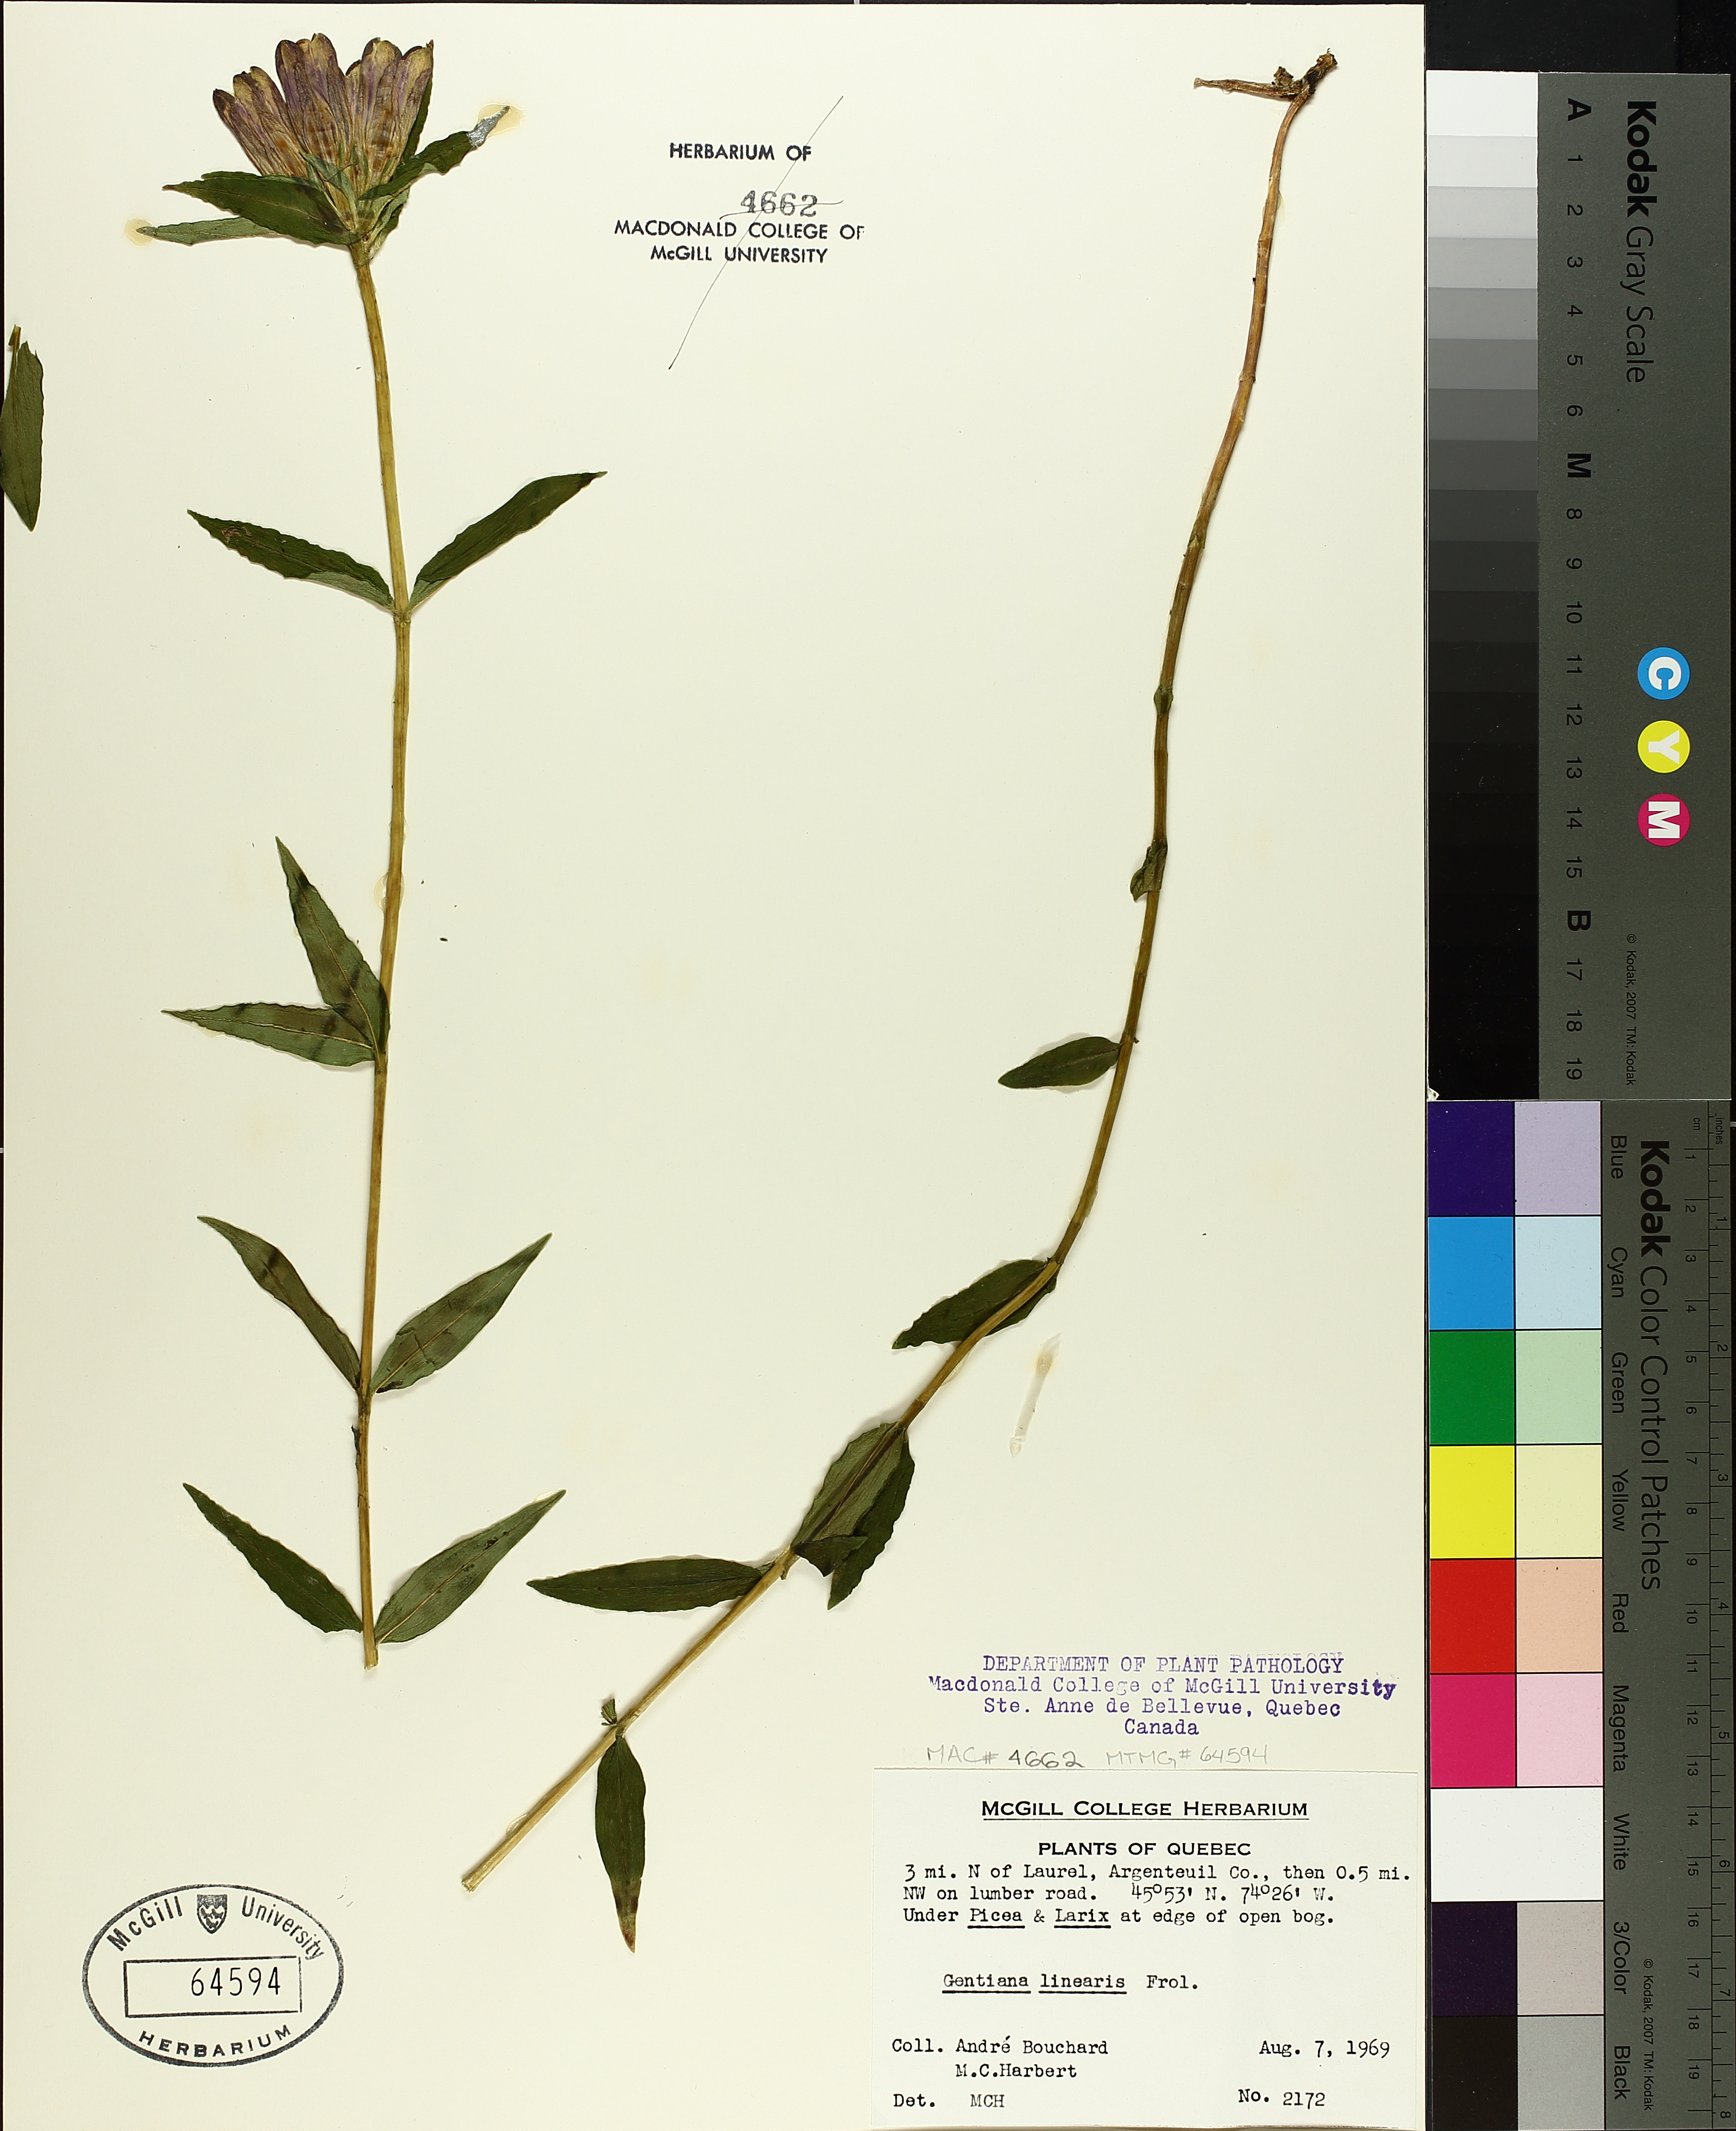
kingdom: Plantae
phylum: Tracheophyta
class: Magnoliopsida
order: Gentianales
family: Gentianaceae
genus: Gentiana
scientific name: Gentiana linearis
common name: Bastard gentian
